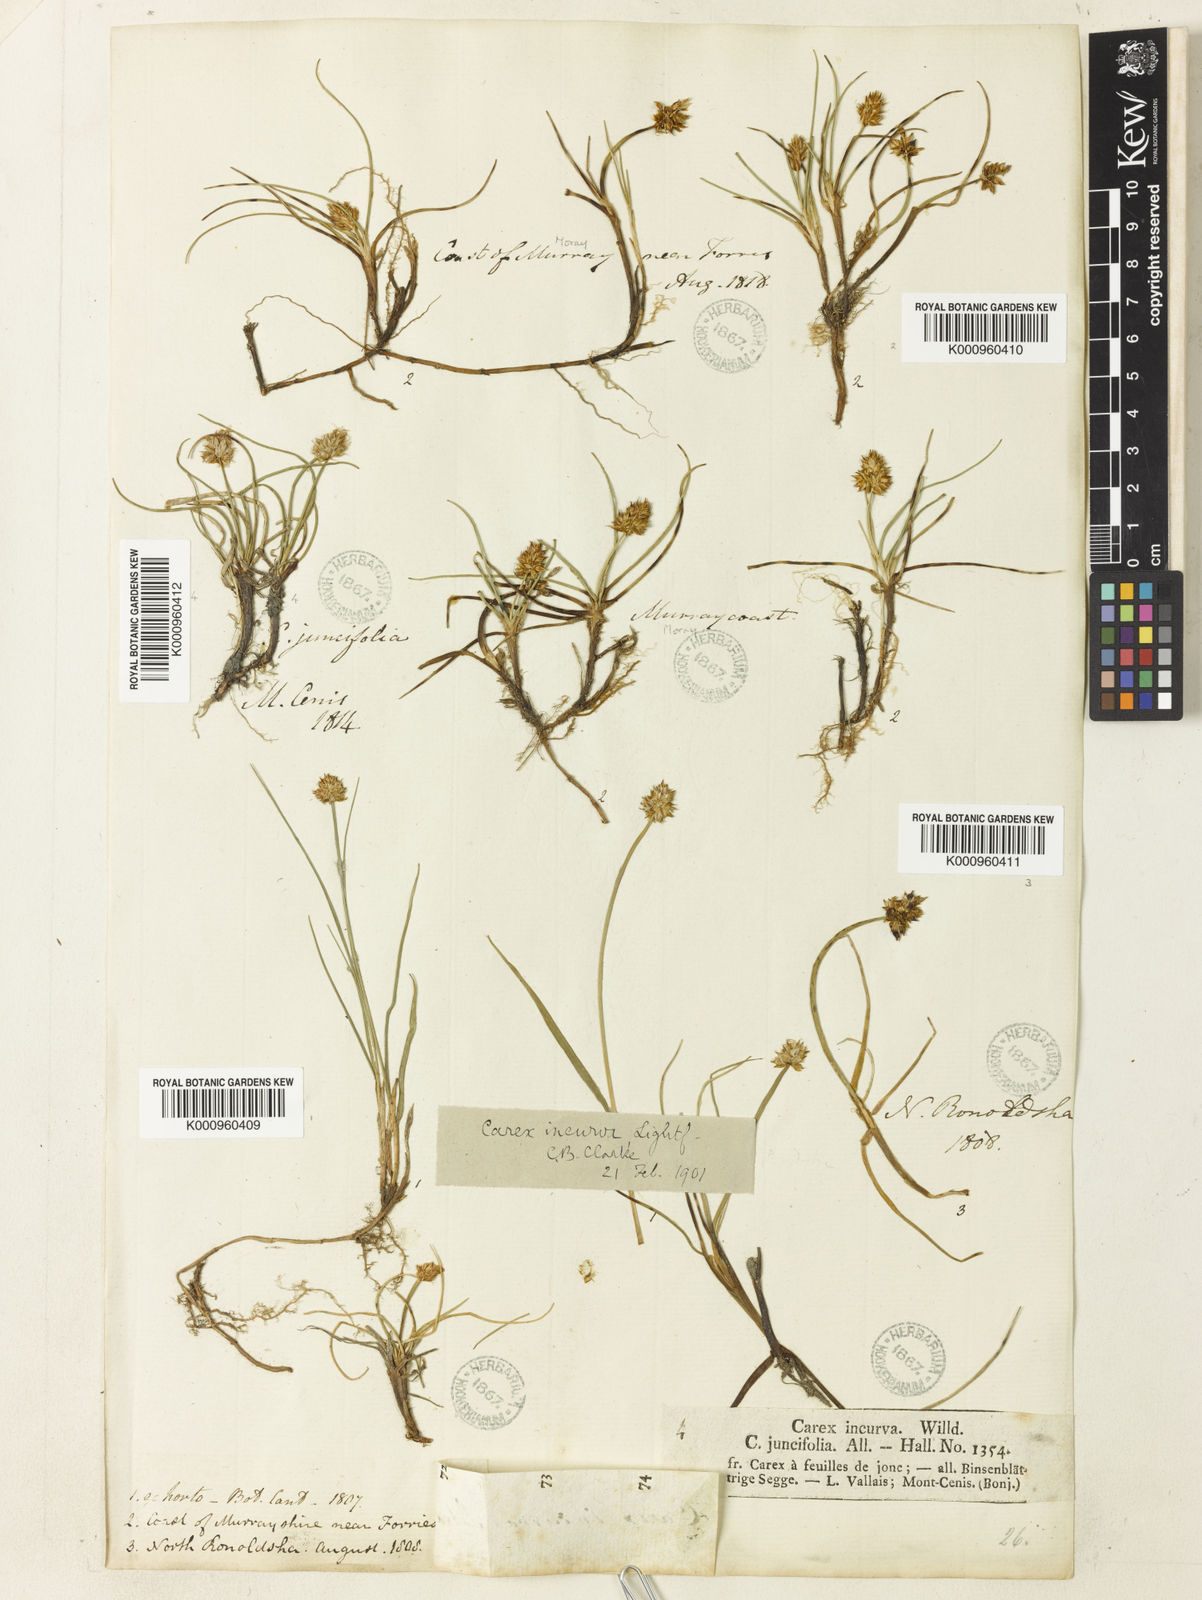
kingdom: Plantae
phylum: Tracheophyta
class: Liliopsida
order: Poales
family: Cyperaceae
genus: Carex
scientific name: Carex maritima
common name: Curved sedge
